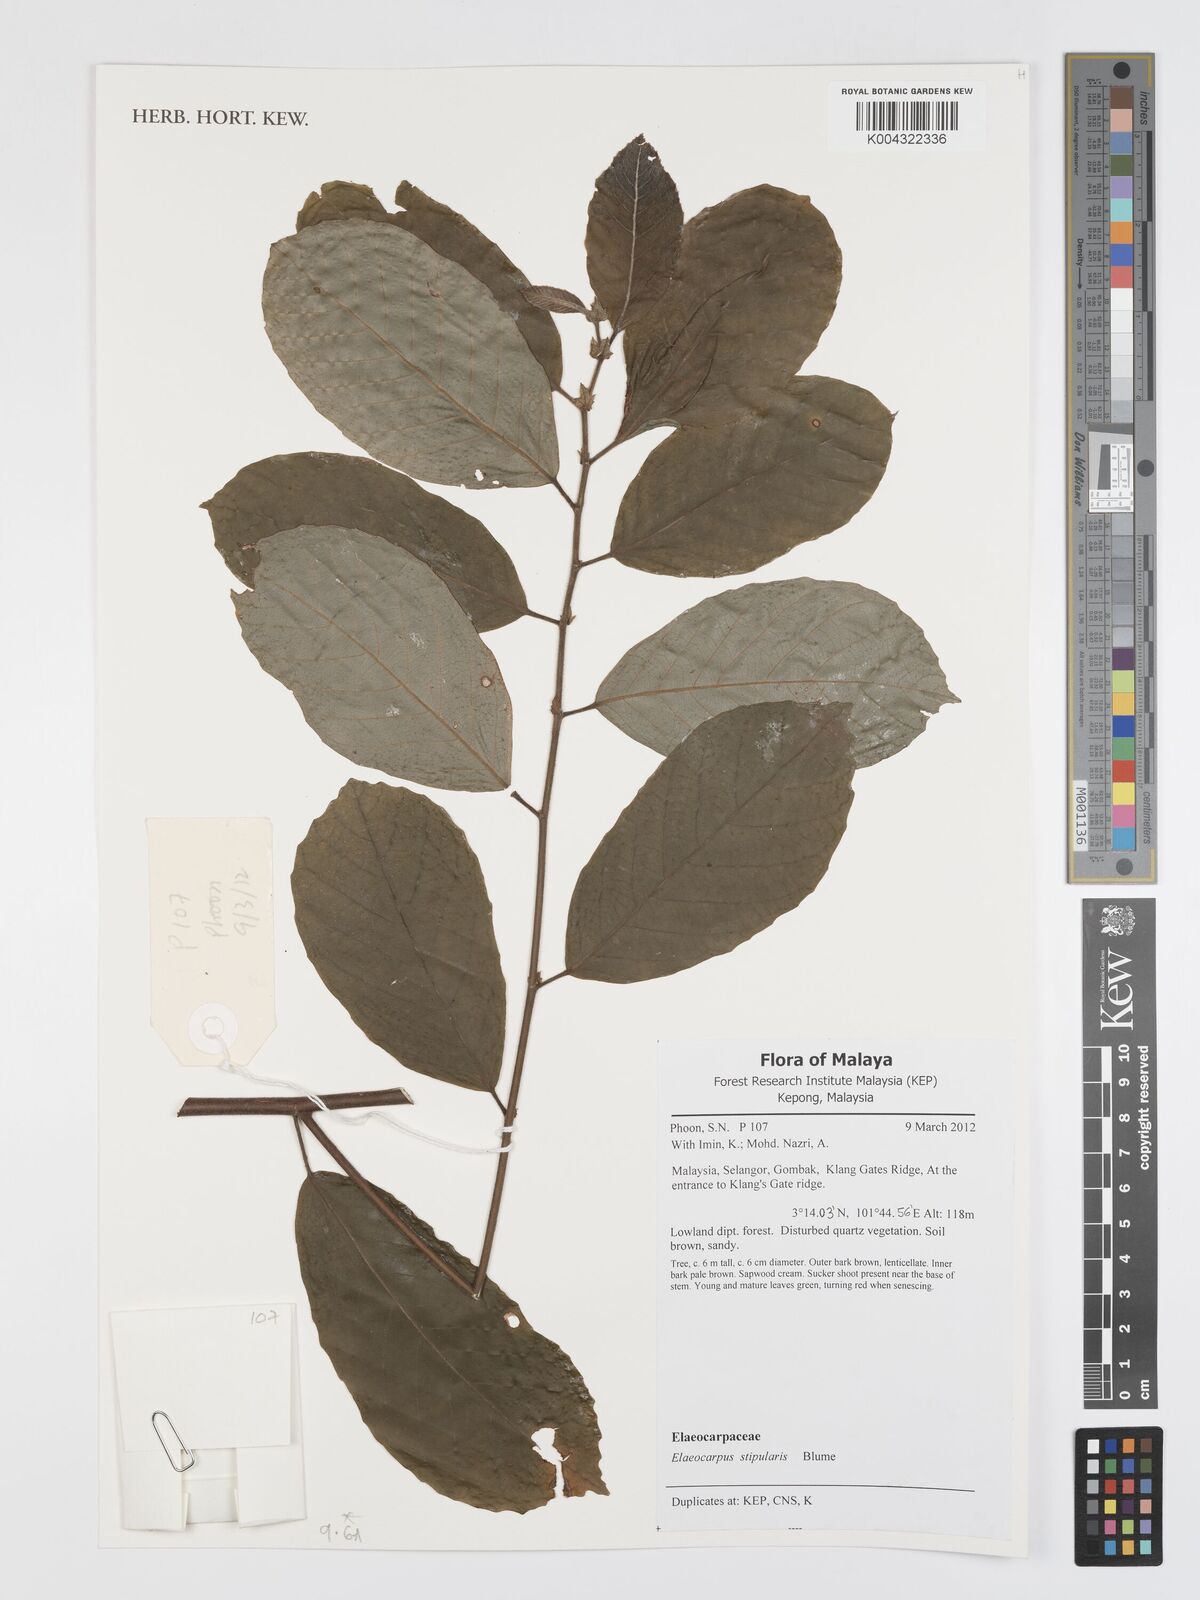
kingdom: Plantae
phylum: Tracheophyta
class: Magnoliopsida
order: Oxalidales
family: Elaeocarpaceae
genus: Elaeocarpus
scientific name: Elaeocarpus stipularis
